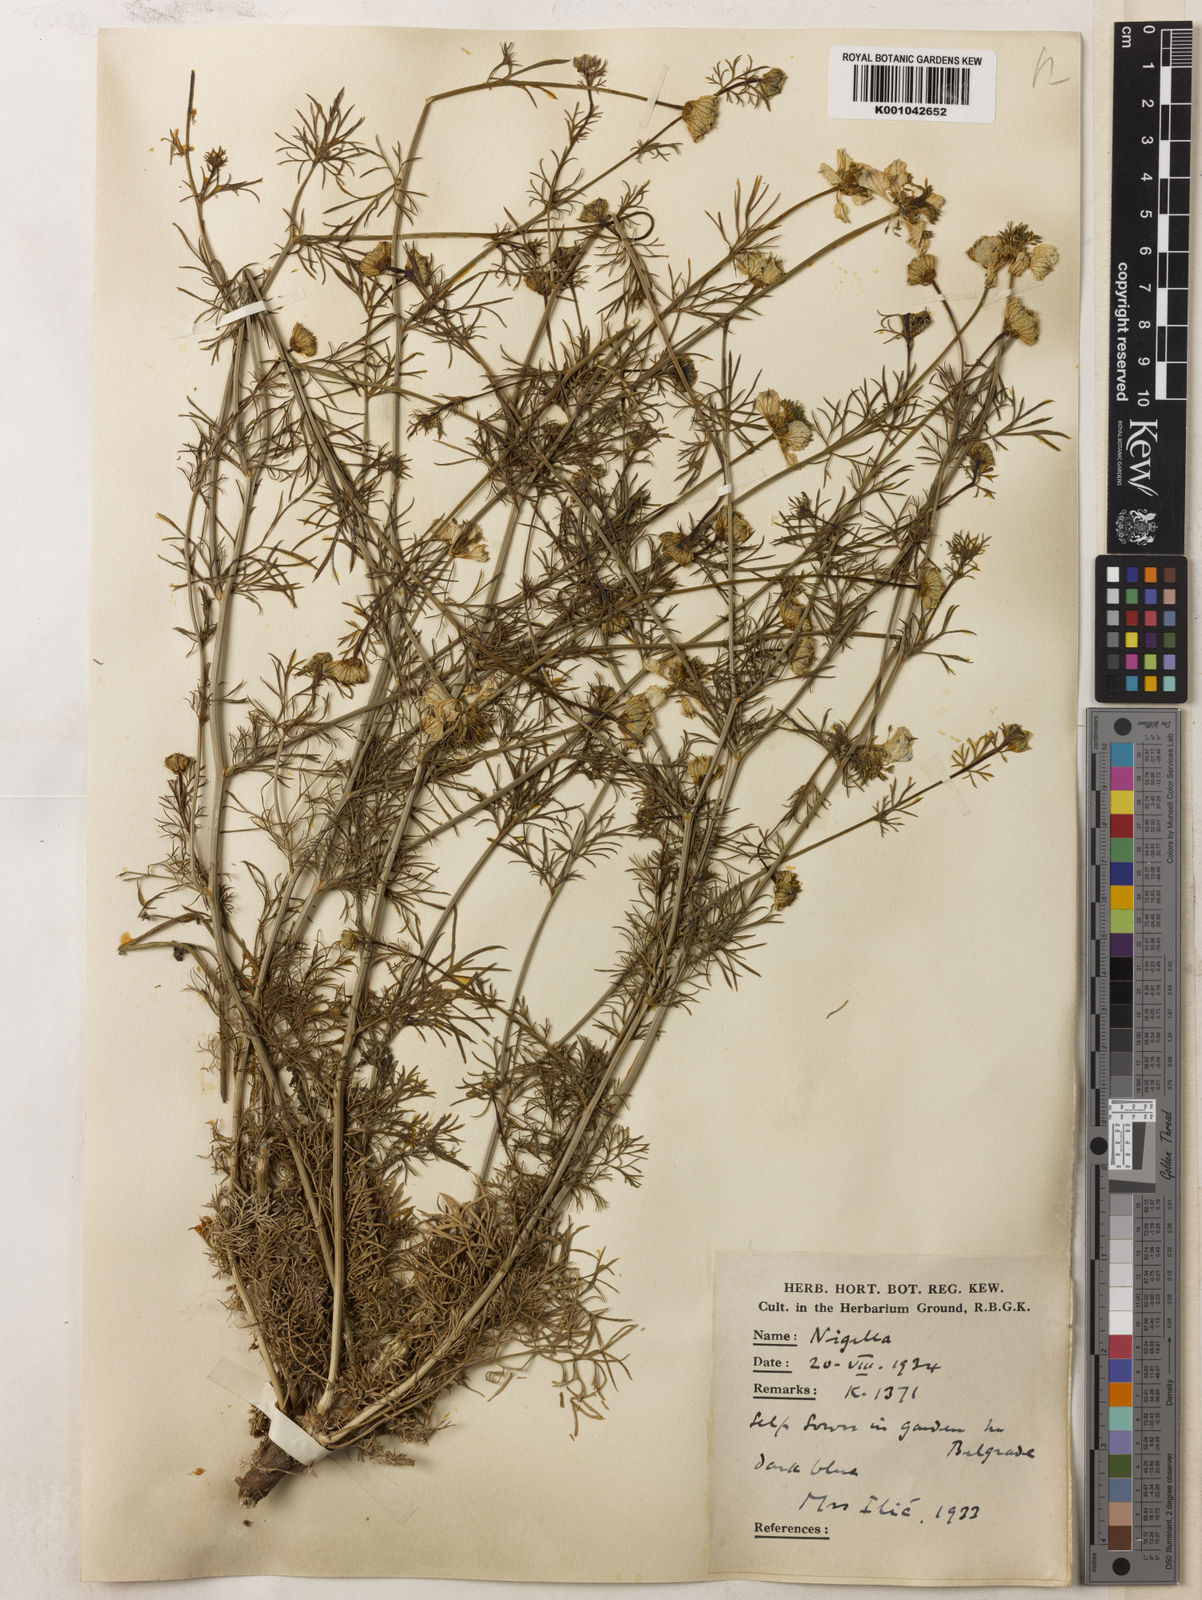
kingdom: Plantae
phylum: Tracheophyta
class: Magnoliopsida
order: Ranunculales
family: Ranunculaceae
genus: Nigella
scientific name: Nigella arvensis
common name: Wild fennel-flower
